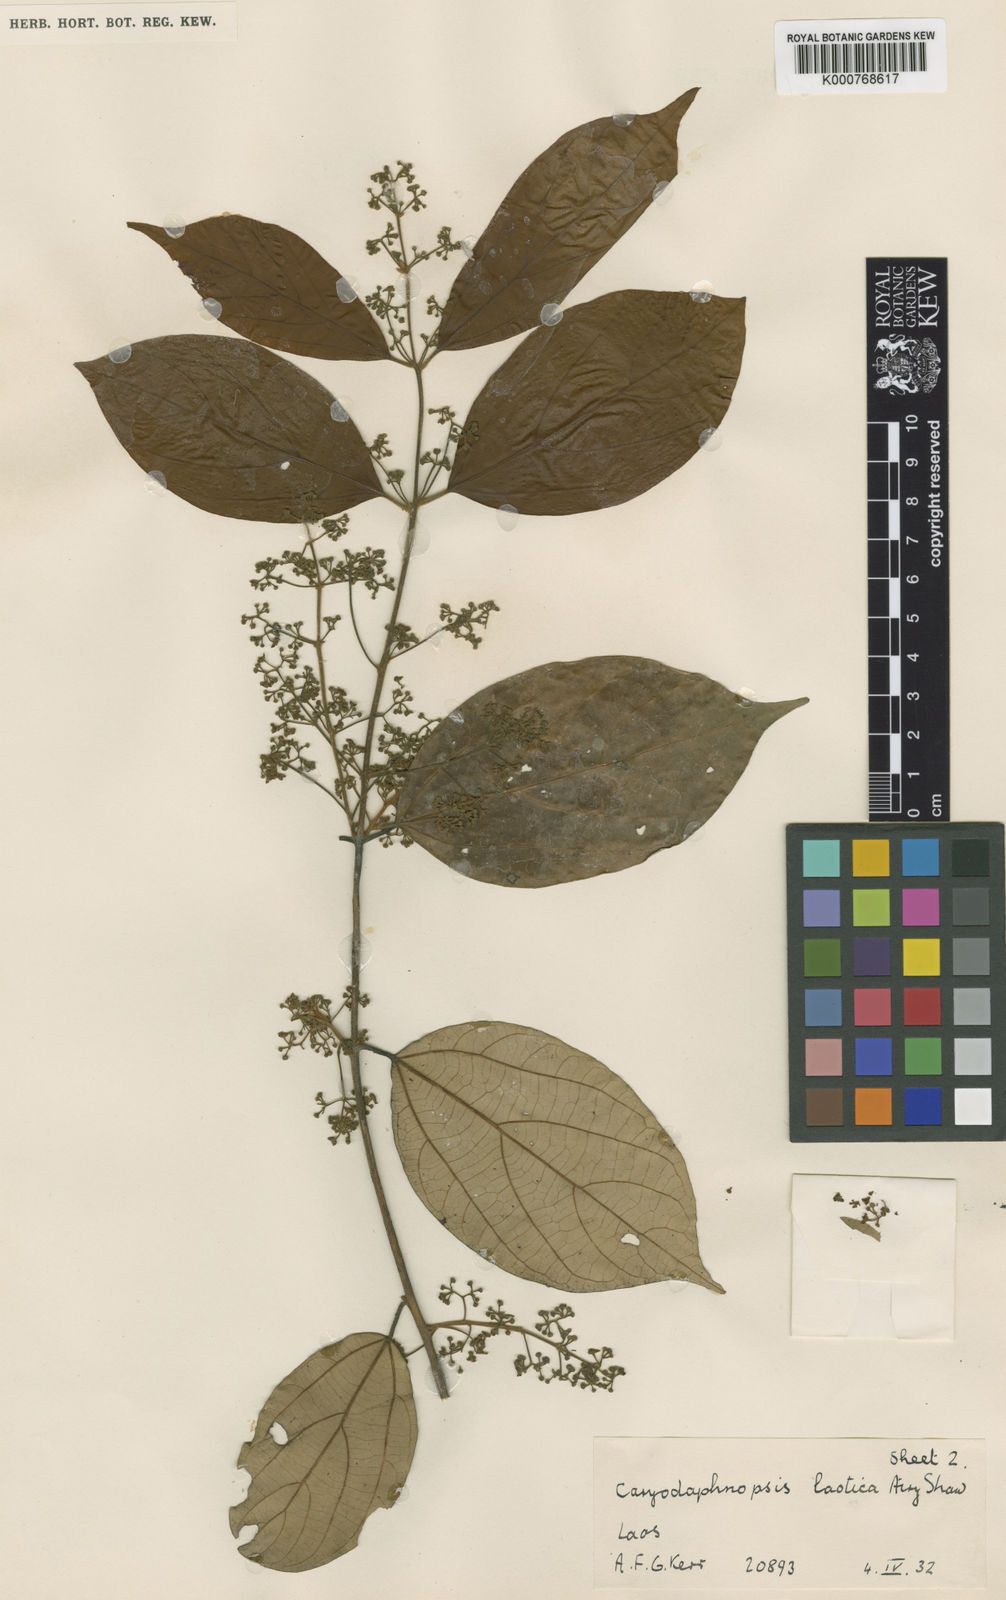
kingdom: Plantae
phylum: Tracheophyta
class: Magnoliopsida
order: Laurales
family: Lauraceae
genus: Caryodaphnopsis
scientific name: Caryodaphnopsis laotica
